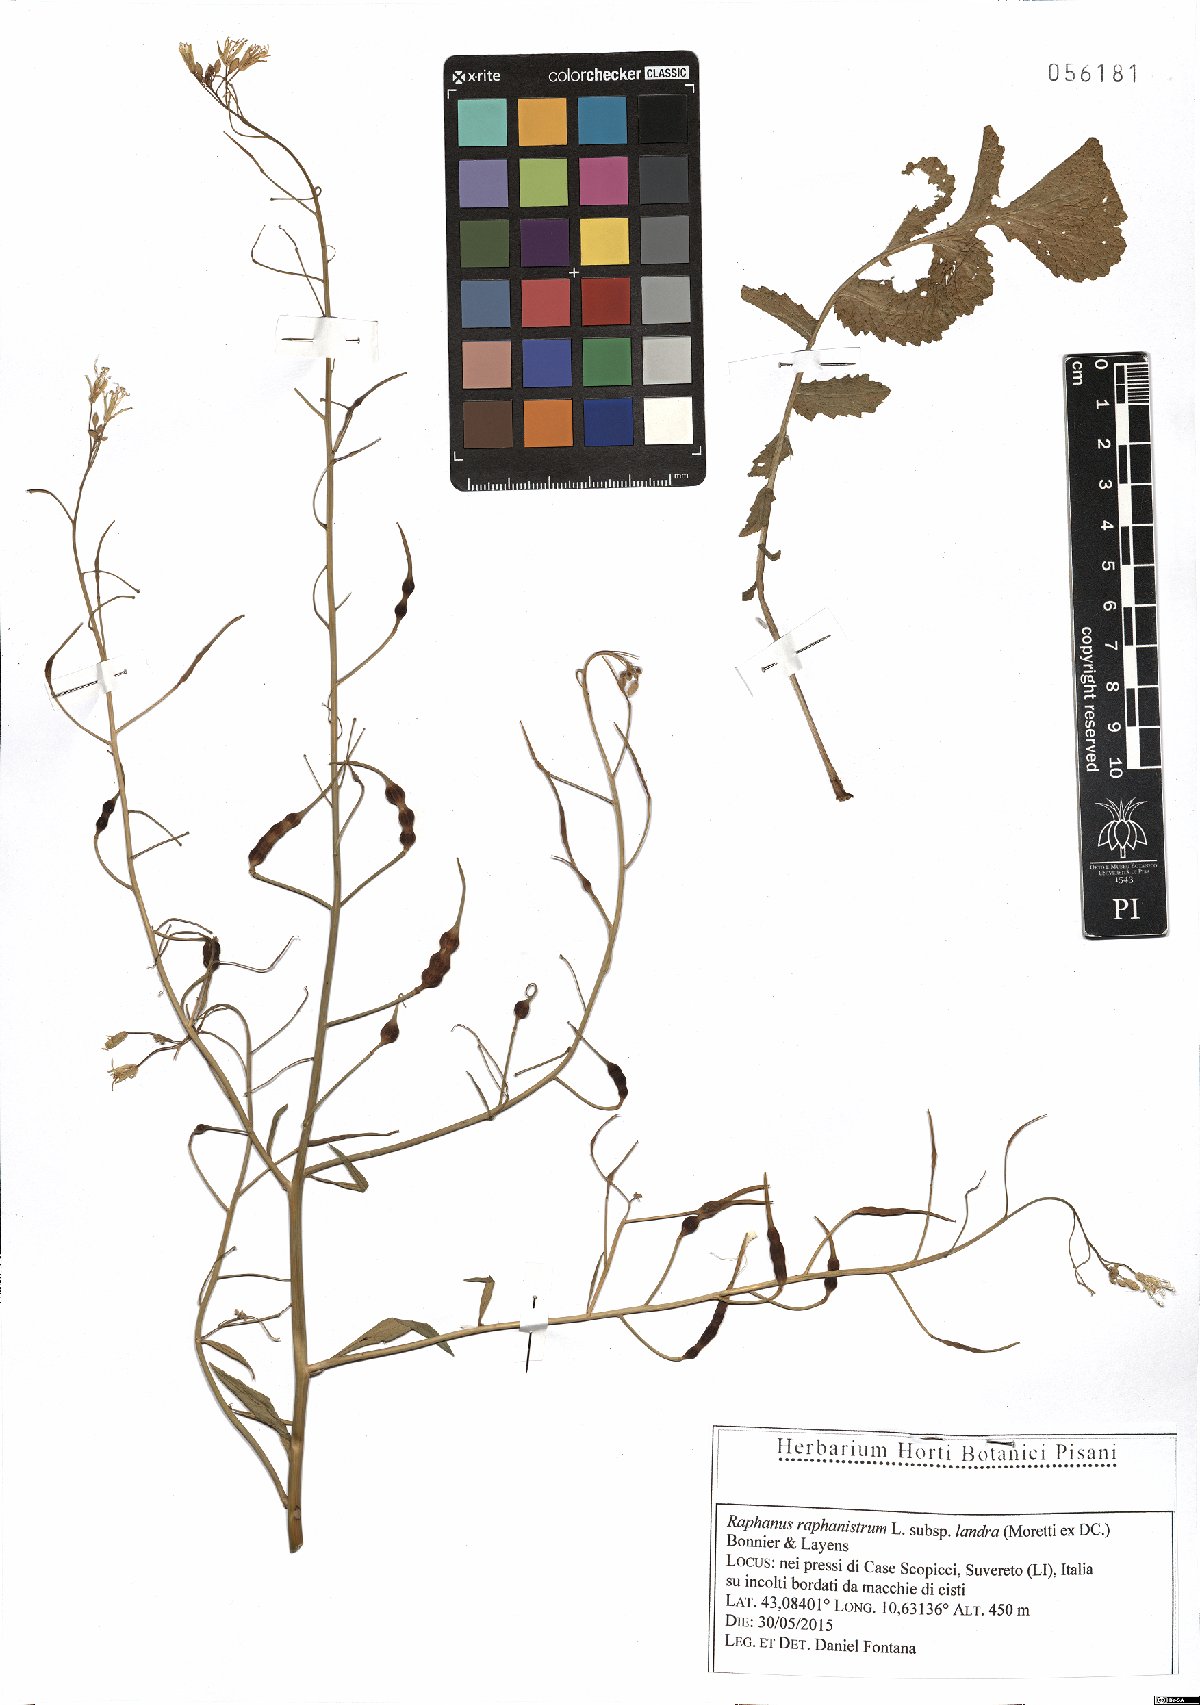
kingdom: Plantae
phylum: Tracheophyta
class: Magnoliopsida
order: Brassicales
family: Brassicaceae
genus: Raphanus
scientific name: Raphanus raphanistrum
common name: Wild radish
